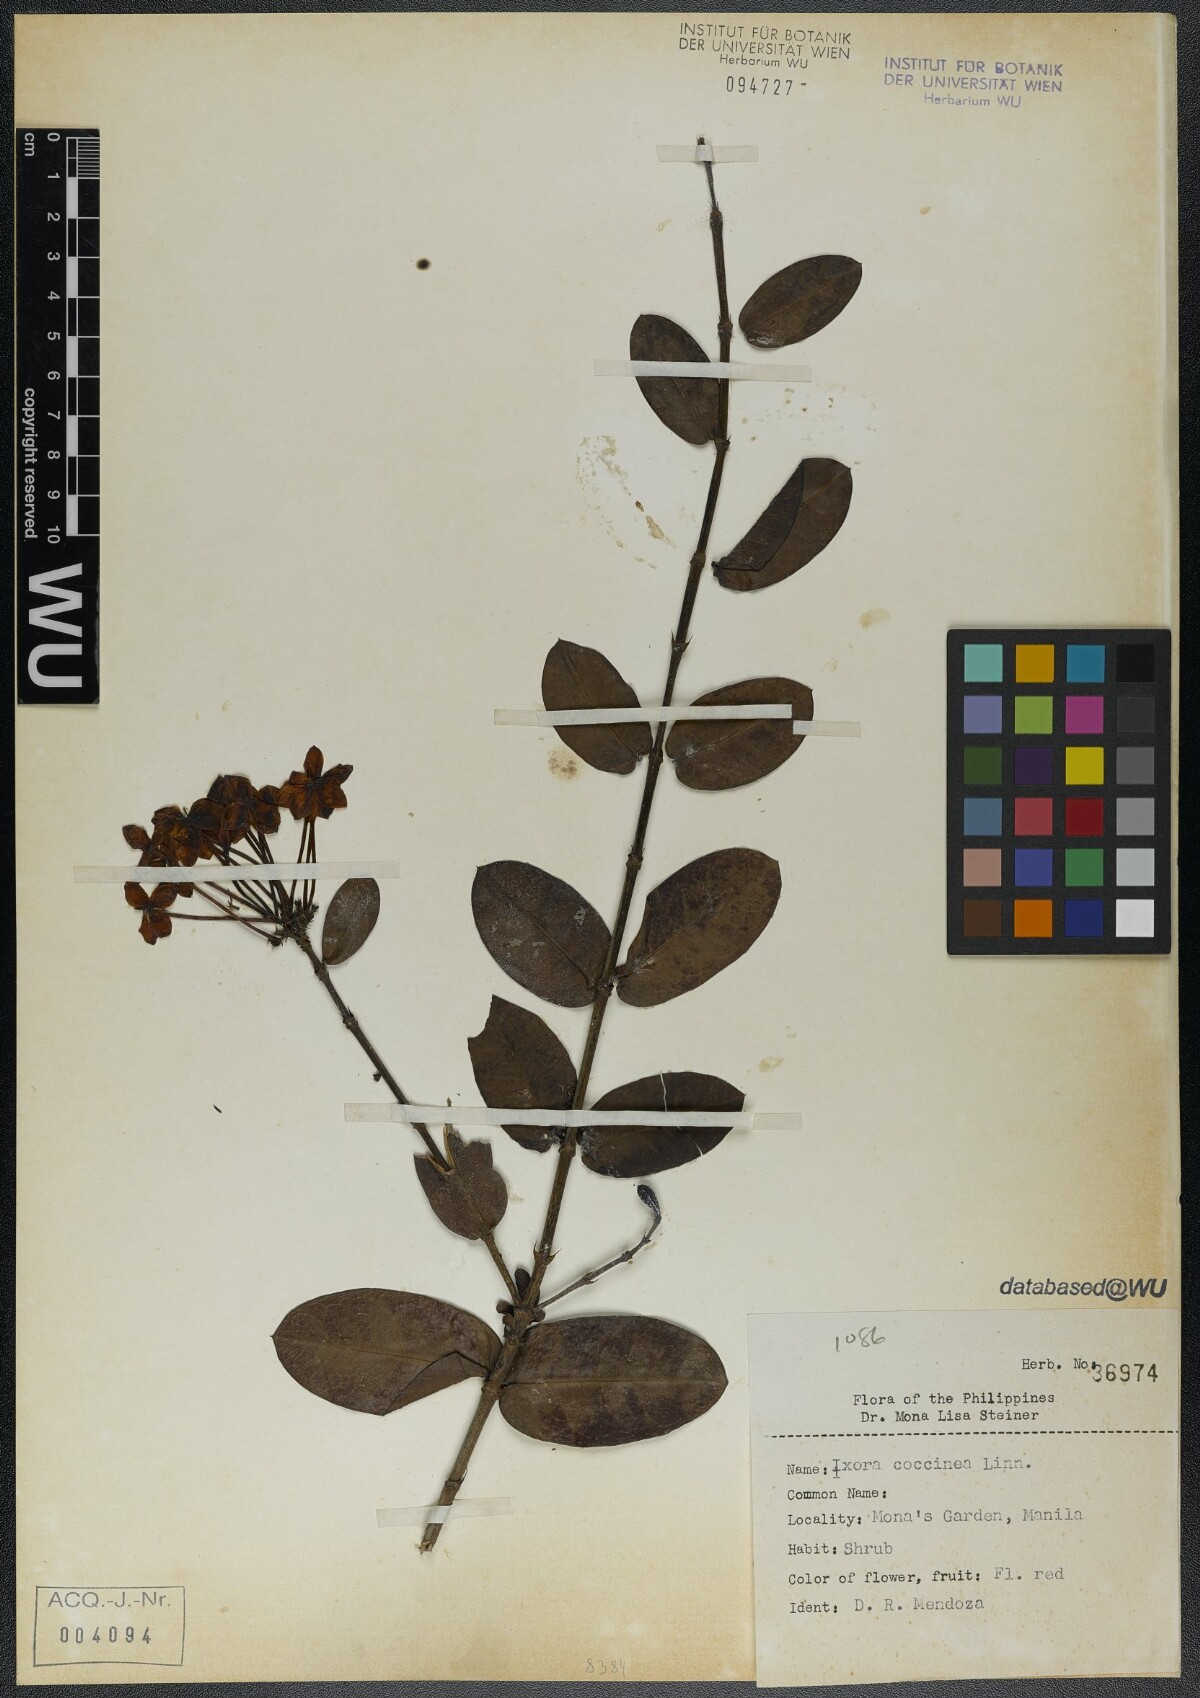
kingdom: Plantae
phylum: Tracheophyta
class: Magnoliopsida
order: Gentianales
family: Rubiaceae
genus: Ixora
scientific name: Ixora coccinea
